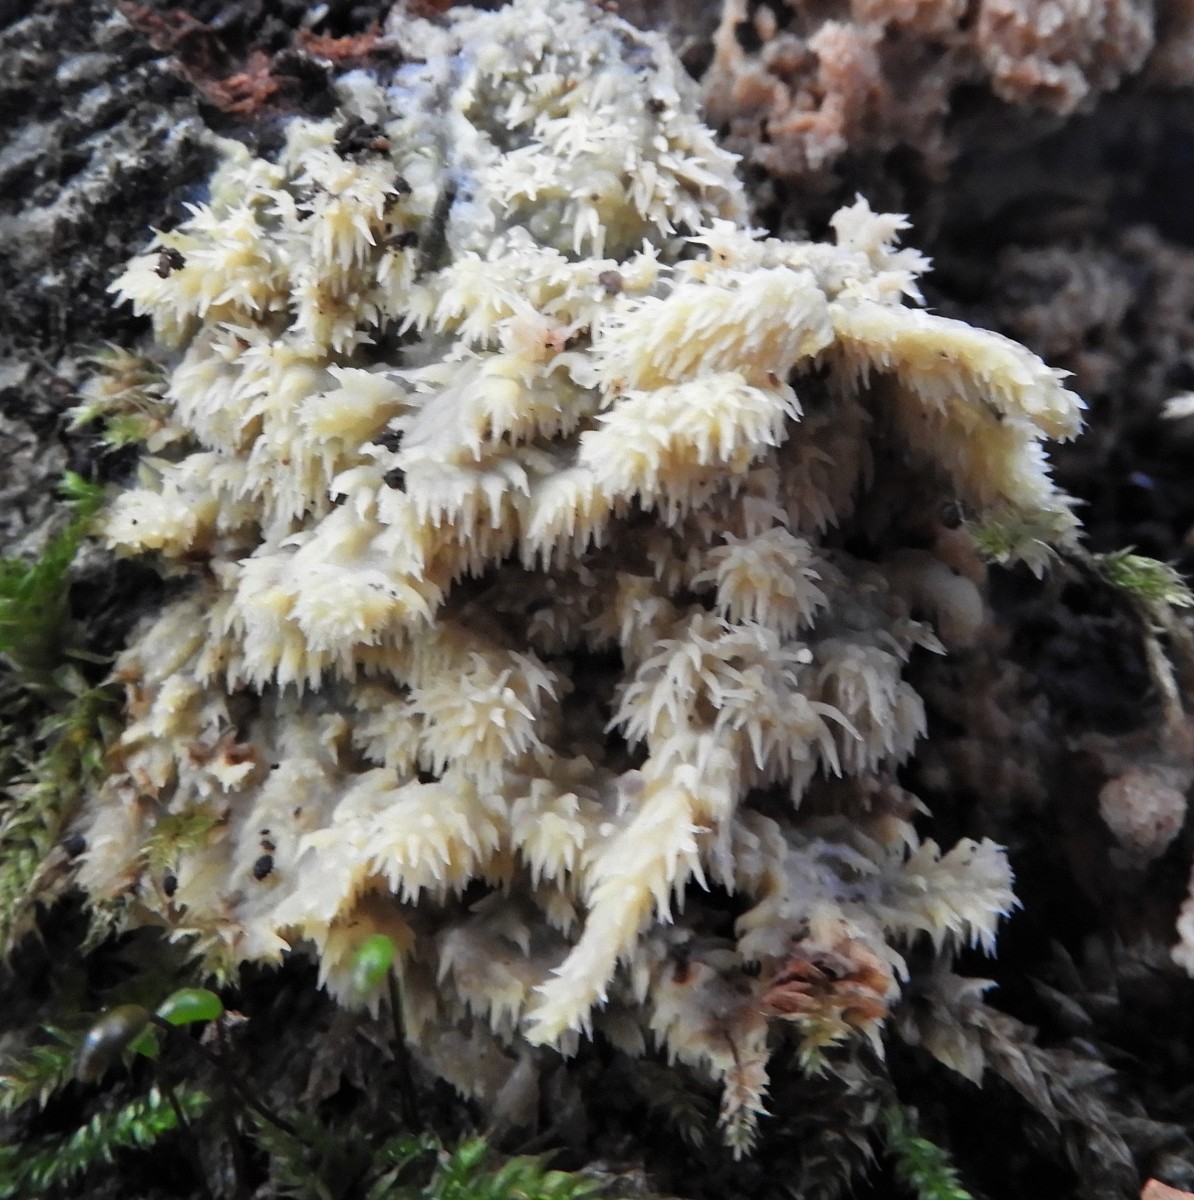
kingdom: Fungi
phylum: Basidiomycota
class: Agaricomycetes
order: Polyporales
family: Meruliaceae
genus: Mycoacia
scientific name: Mycoacia uda
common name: citrongul vokspig
